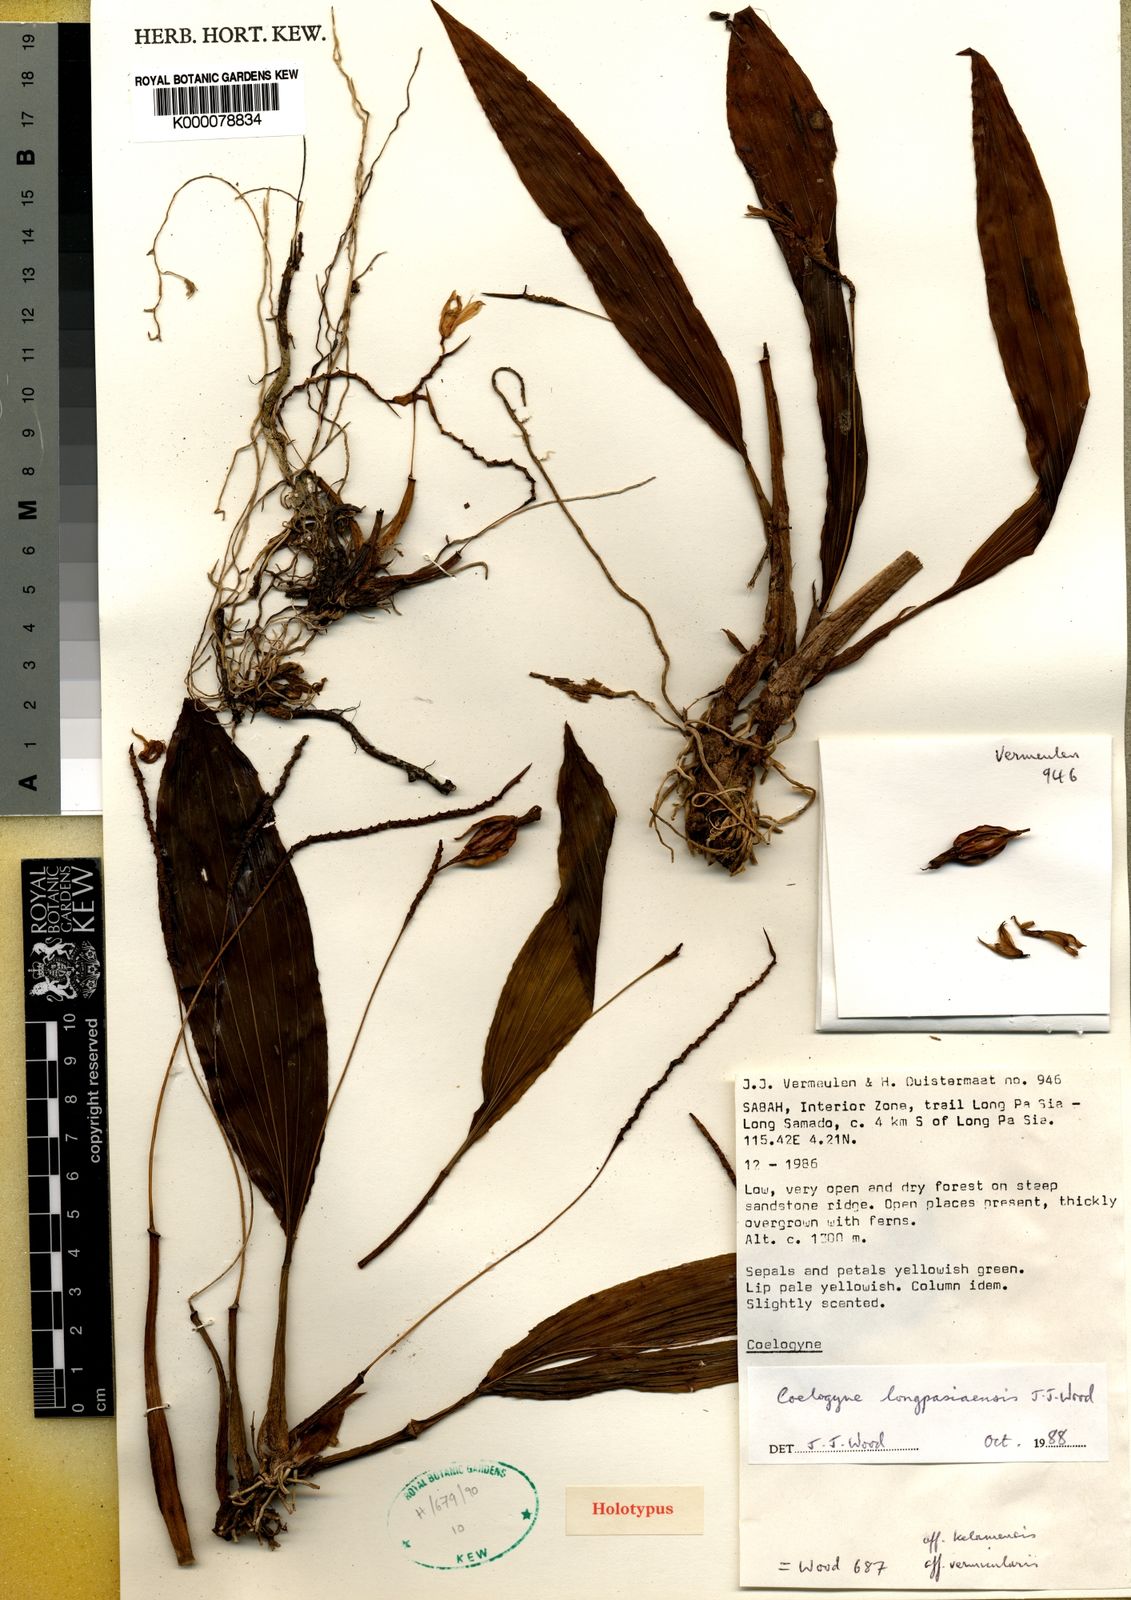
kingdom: Plantae
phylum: Tracheophyta
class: Liliopsida
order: Asparagales
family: Orchidaceae
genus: Coelogyne
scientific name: Coelogyne longpasiaensis
